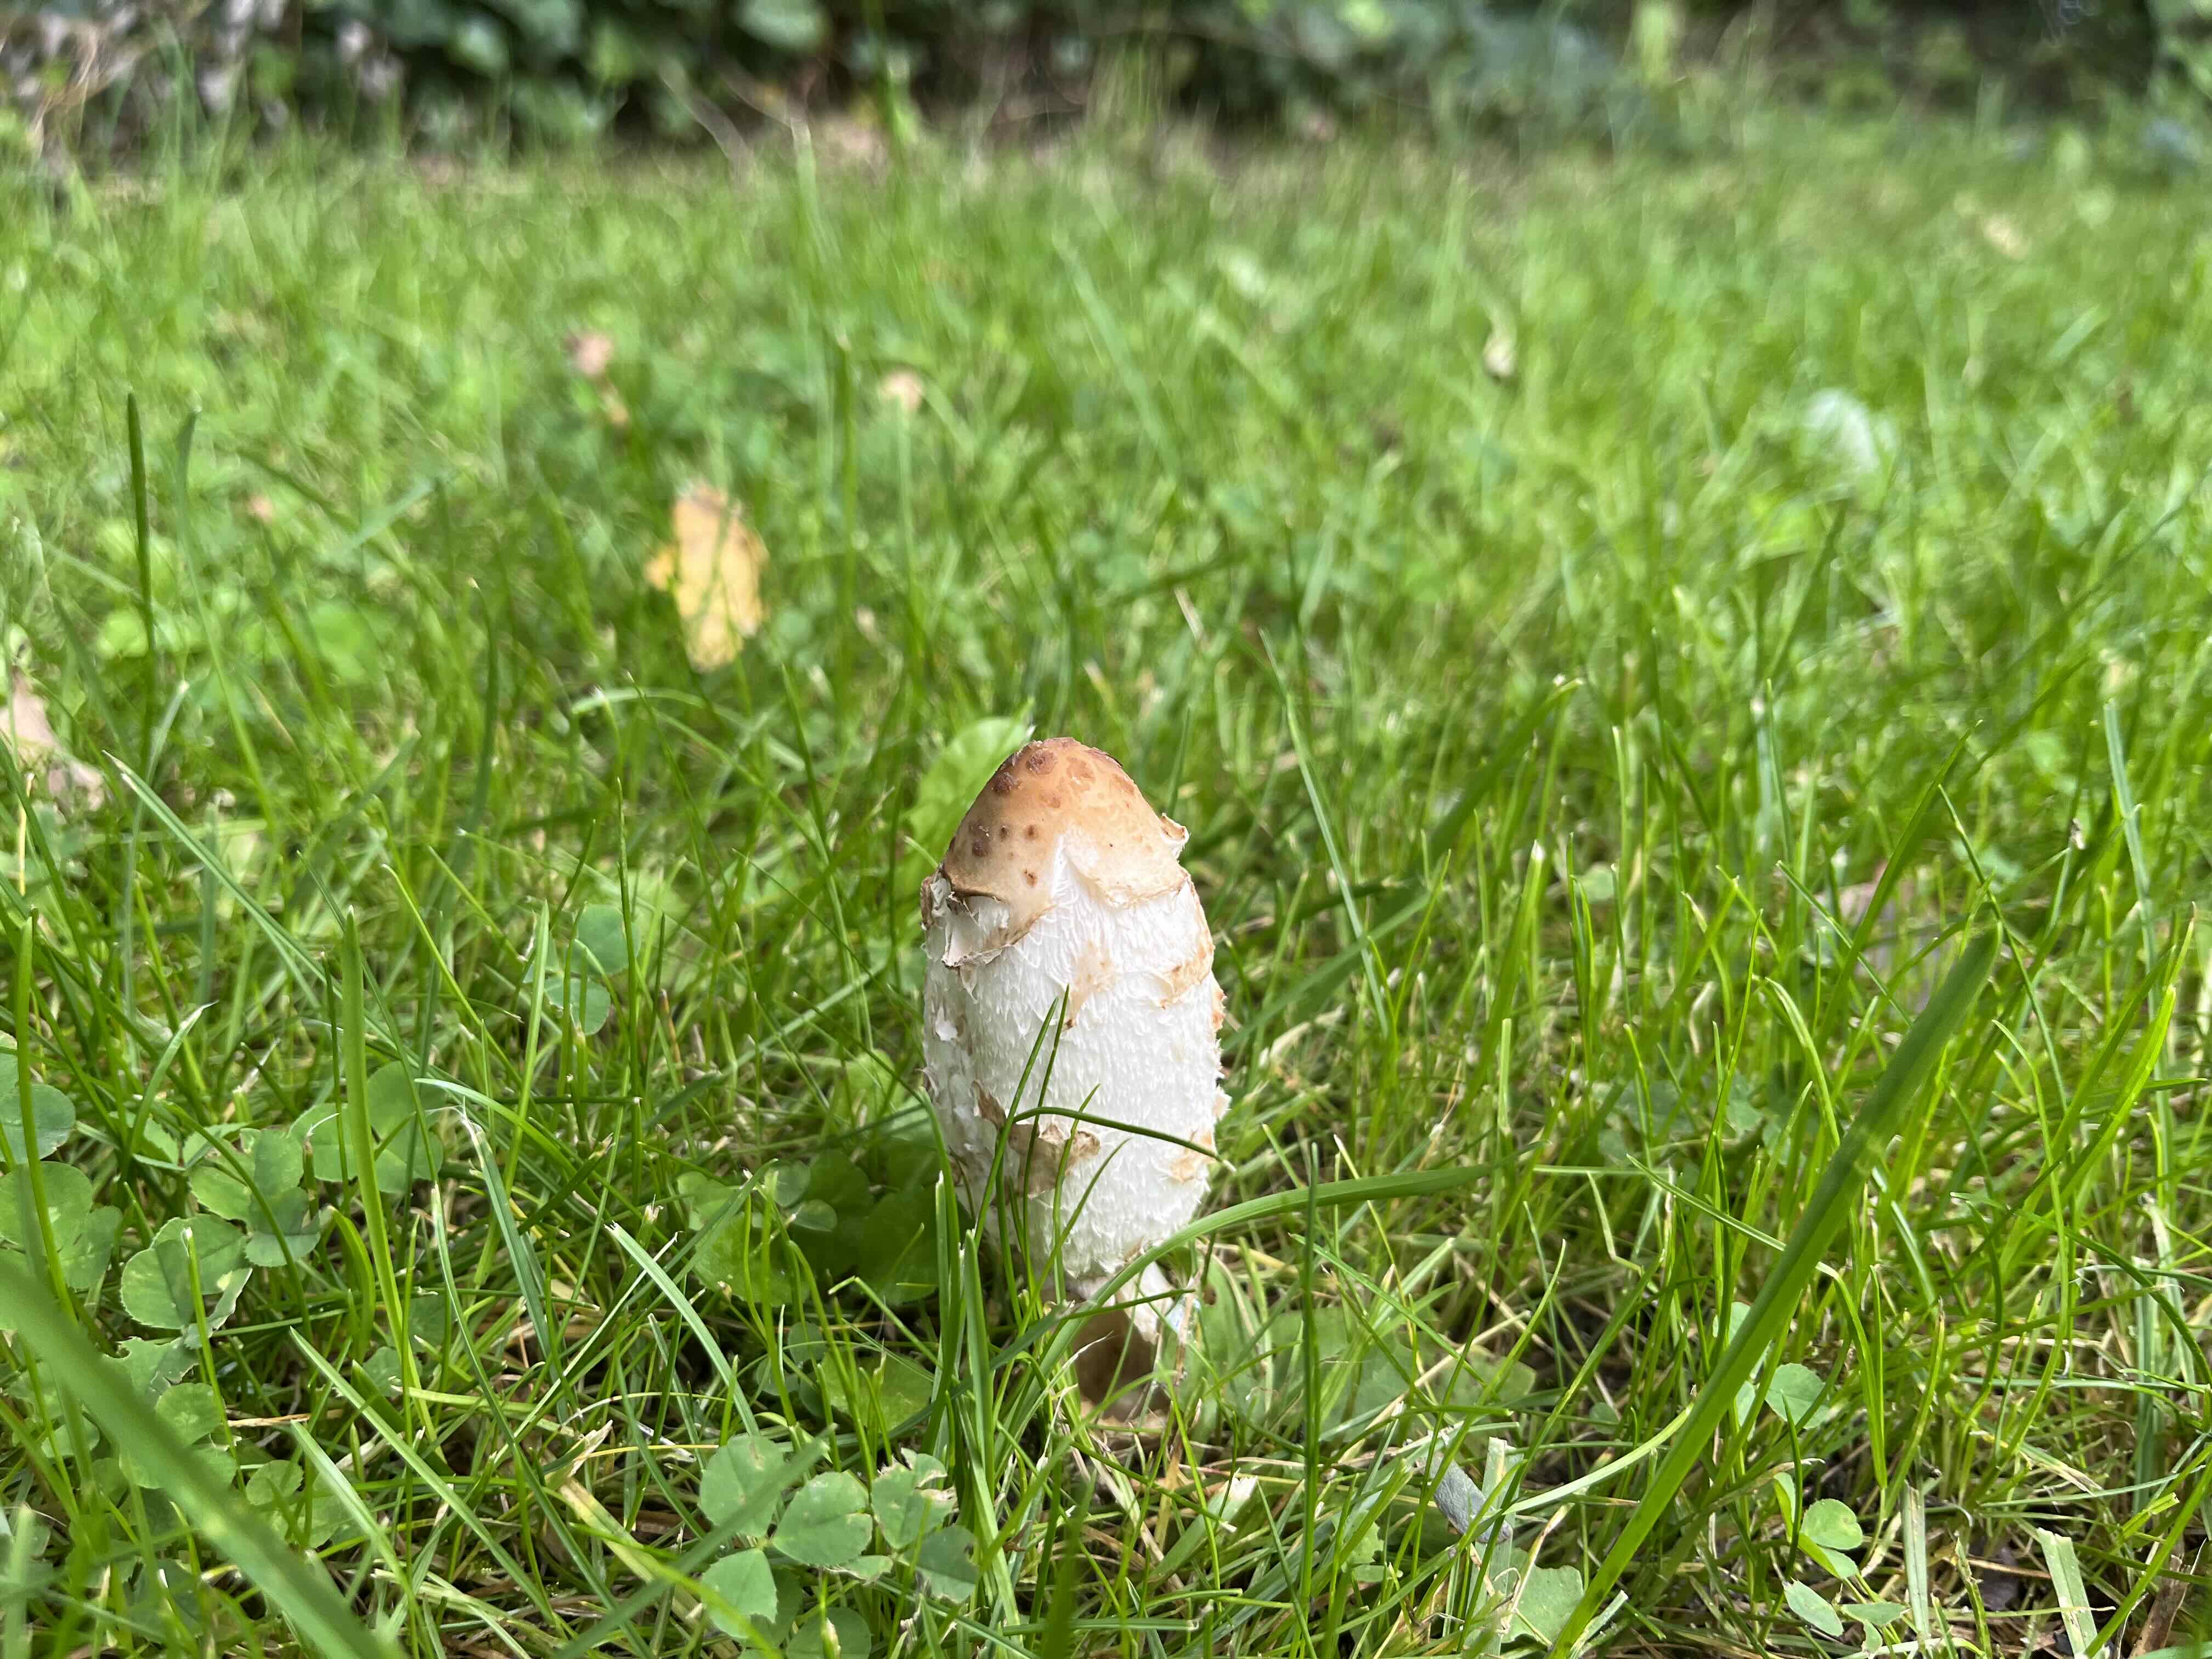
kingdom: Fungi
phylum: Basidiomycota
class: Agaricomycetes
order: Agaricales
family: Agaricaceae
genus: Coprinus
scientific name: Coprinus comatus
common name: stor parykhat
